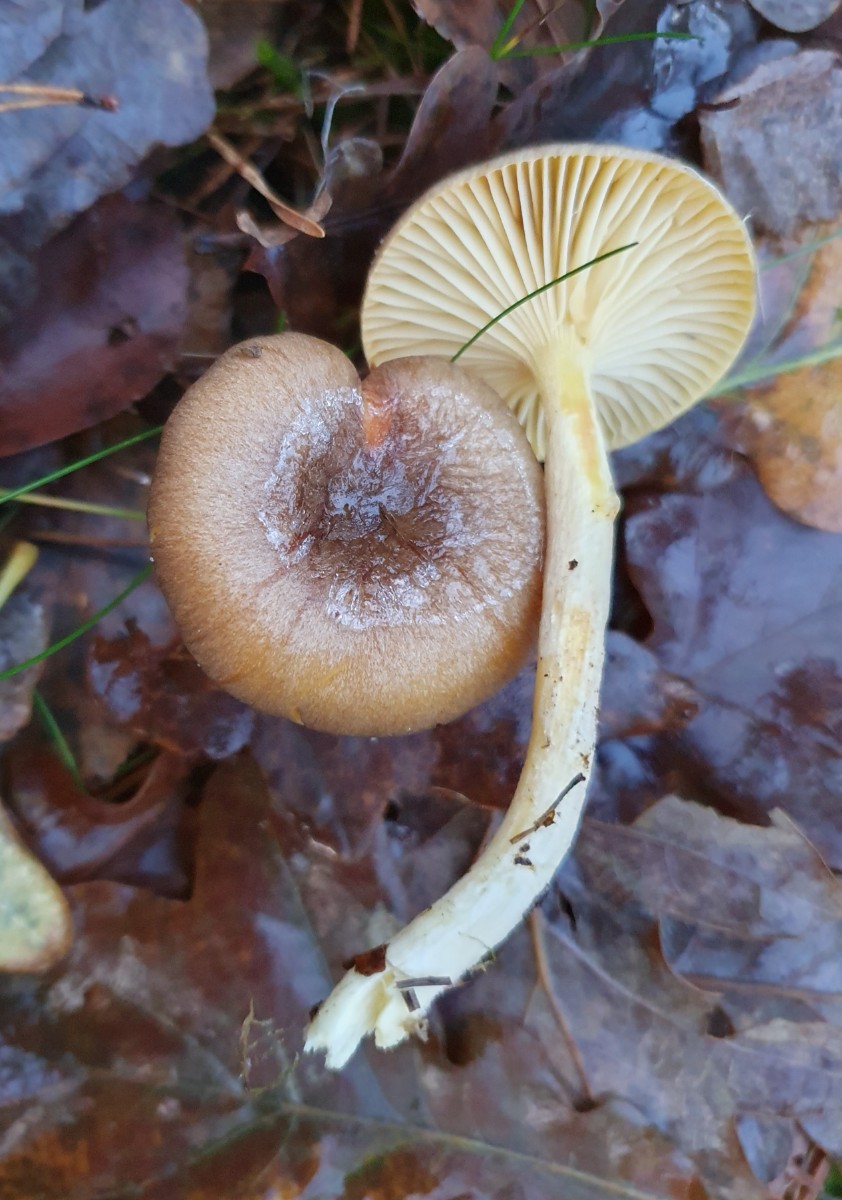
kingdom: Fungi
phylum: Basidiomycota
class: Agaricomycetes
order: Agaricales
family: Hygrophoraceae
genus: Hygrophorus
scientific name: Hygrophorus hypothejus
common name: frost-sneglehat
